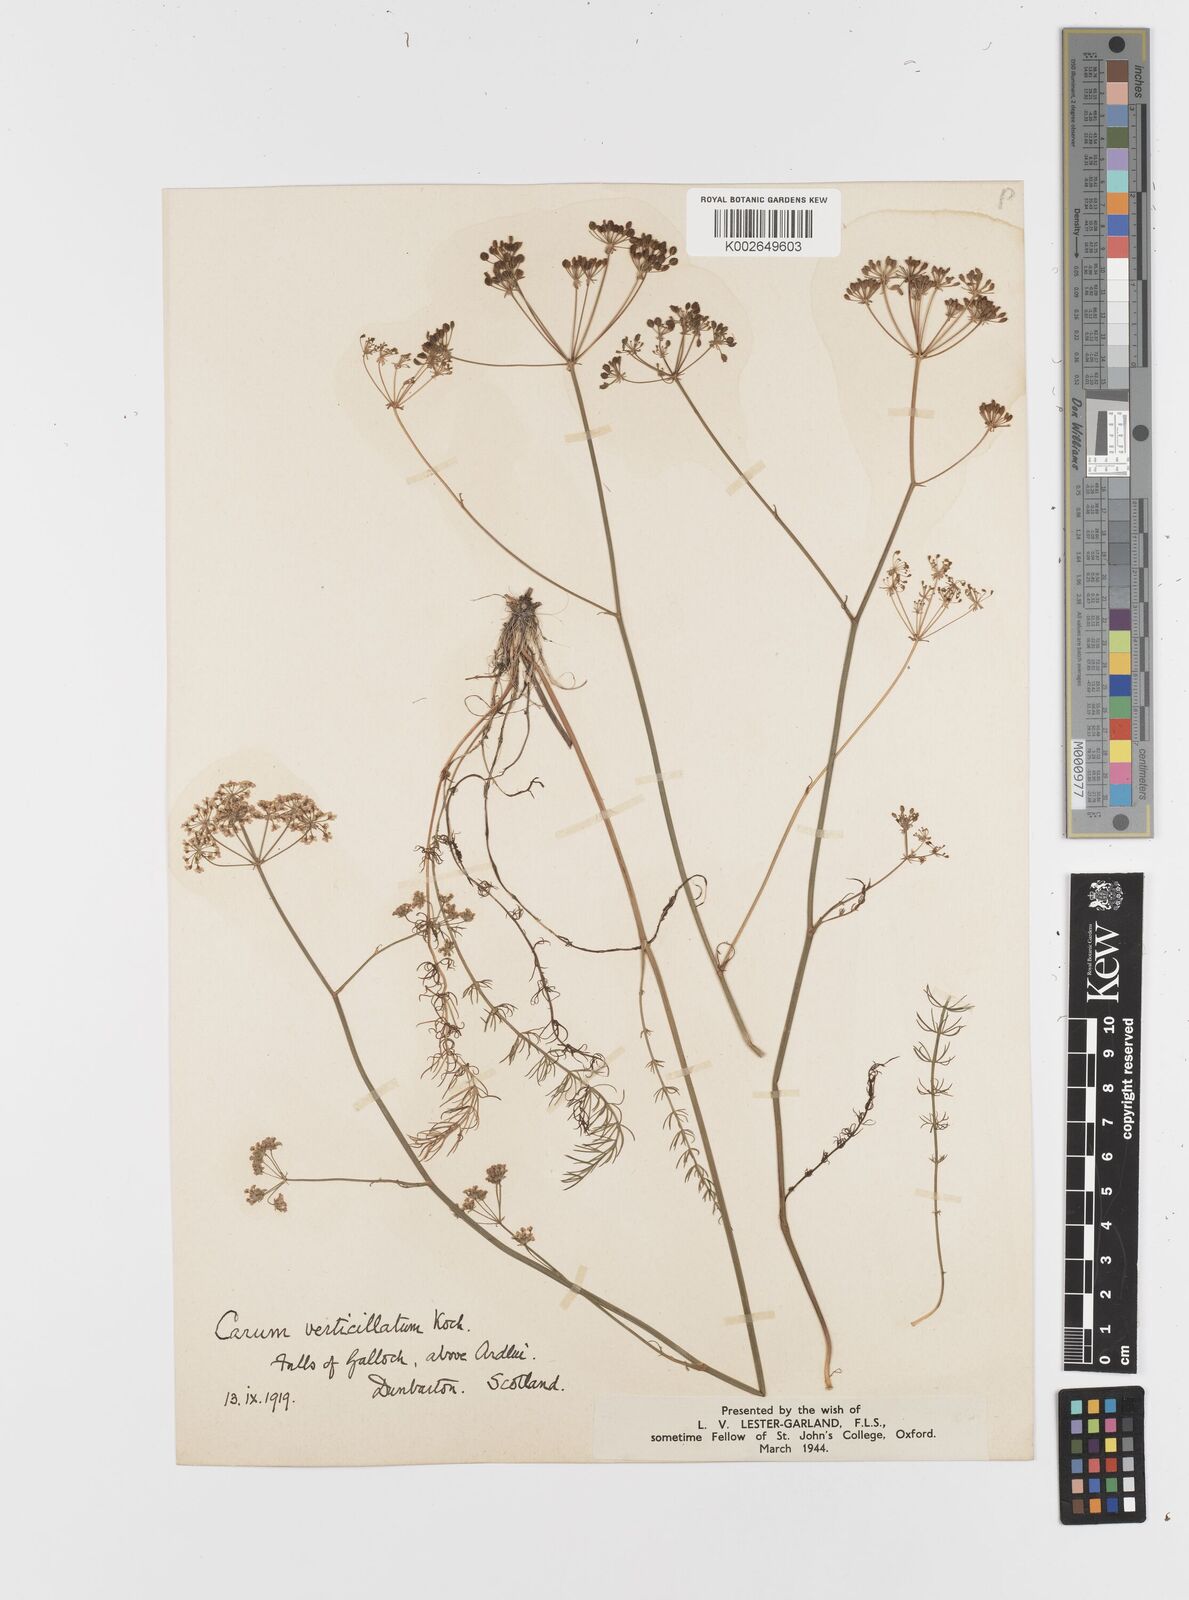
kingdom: Plantae
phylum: Tracheophyta
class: Magnoliopsida
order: Apiales
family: Apiaceae
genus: Trocdaris
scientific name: Trocdaris verticillatum
